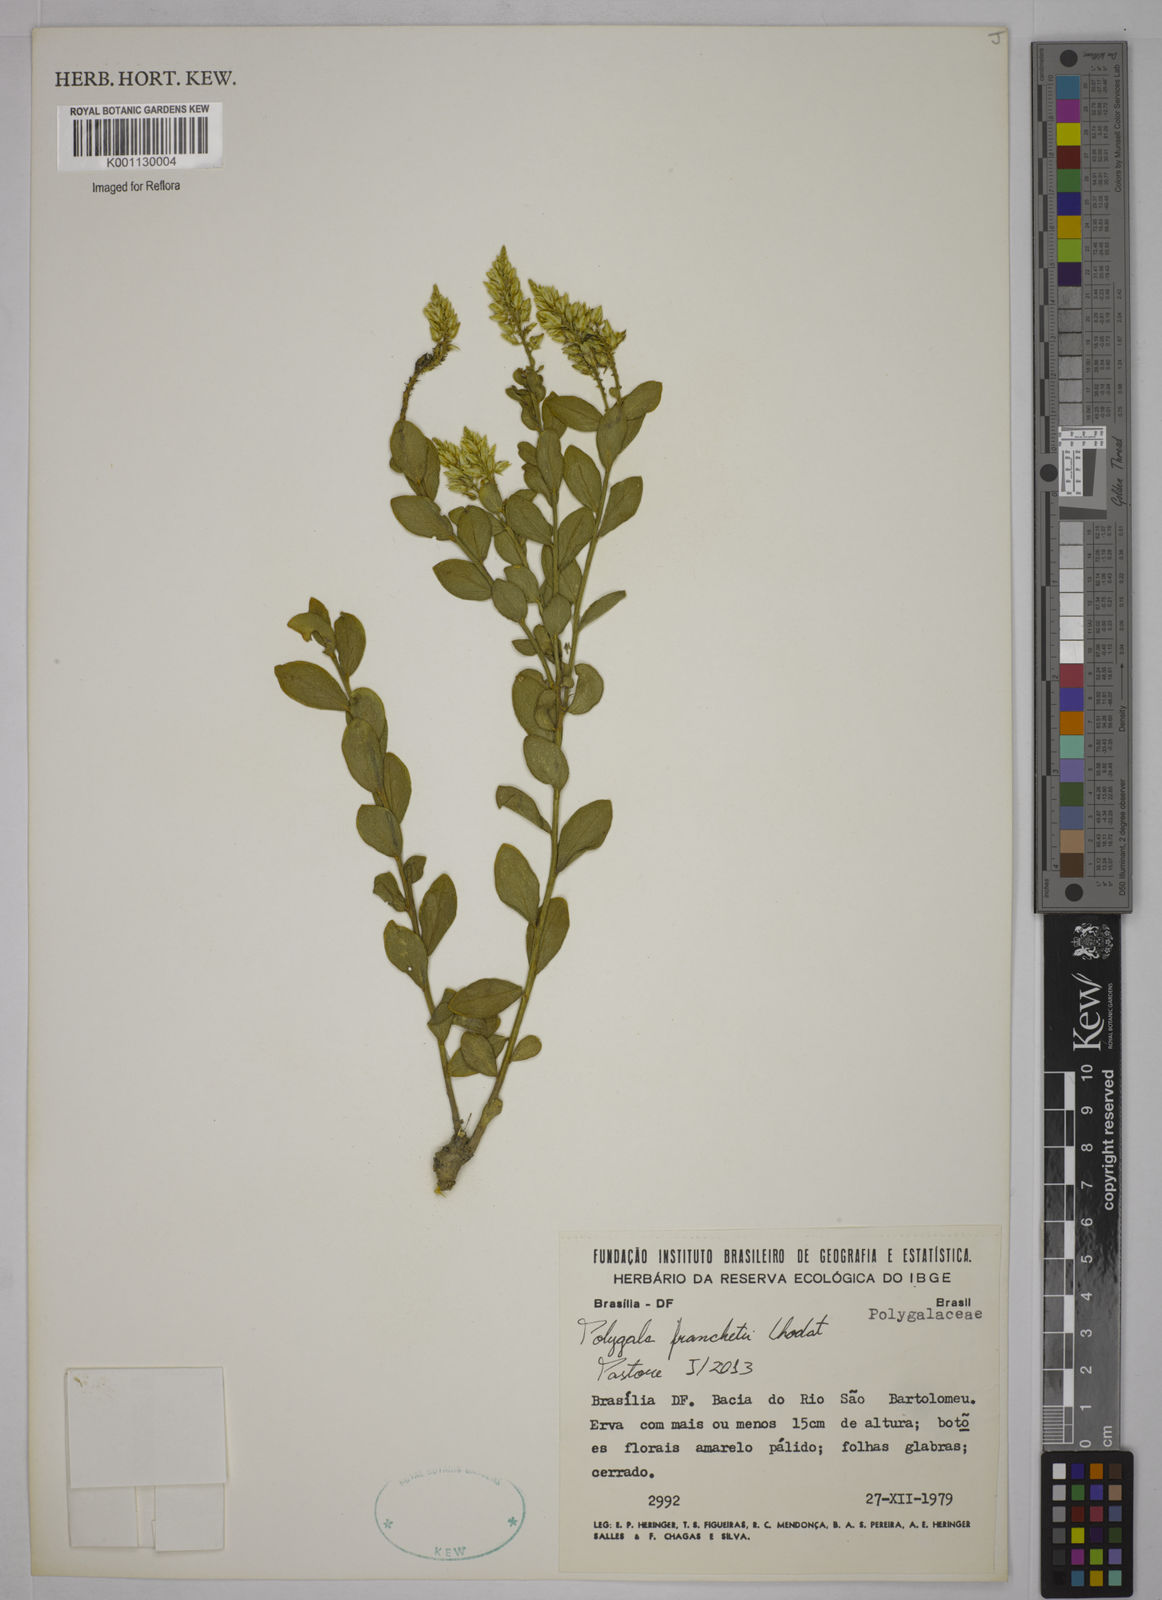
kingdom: Plantae
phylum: Tracheophyta
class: Magnoliopsida
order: Fabales
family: Polygalaceae
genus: Polygala
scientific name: Polygala franchetii
